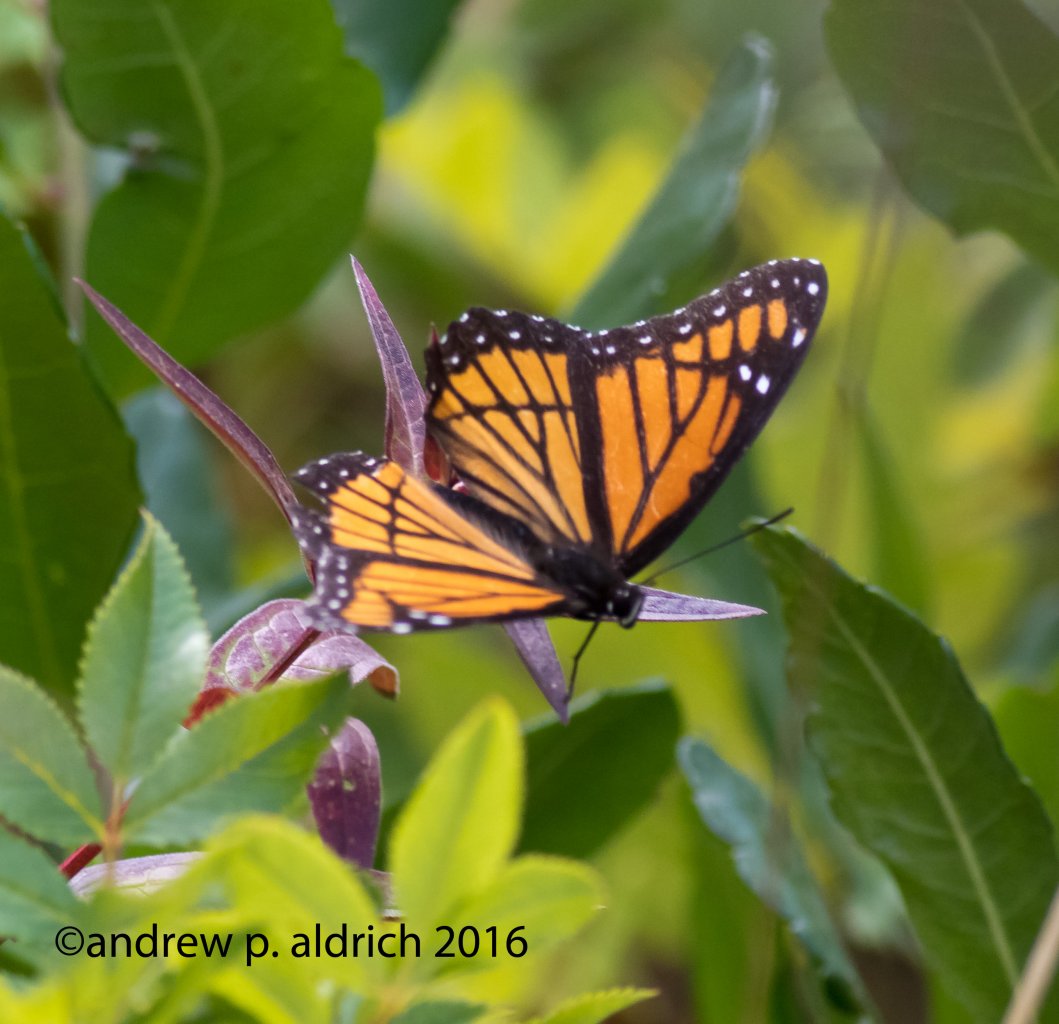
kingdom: Animalia
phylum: Arthropoda
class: Insecta
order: Lepidoptera
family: Nymphalidae
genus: Limenitis
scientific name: Limenitis archippus
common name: Viceroy
